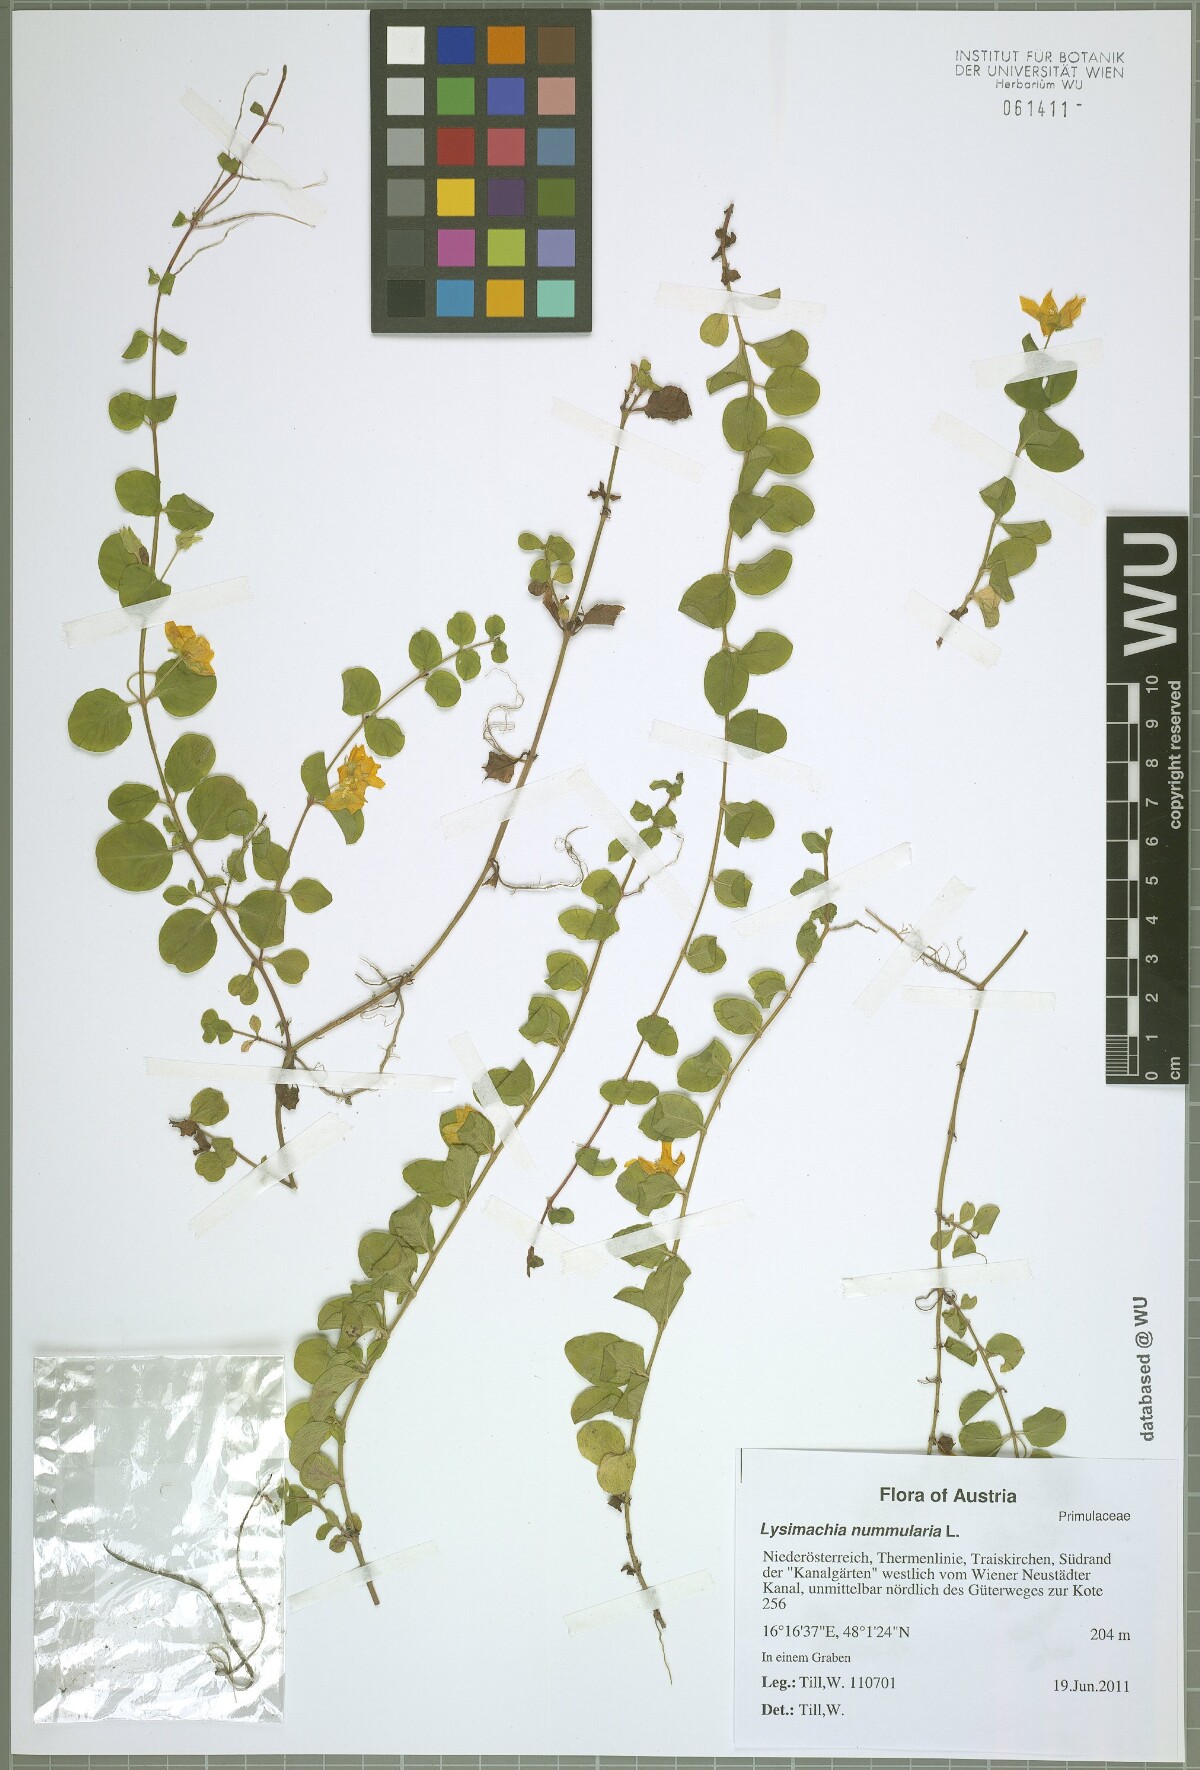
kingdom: Plantae
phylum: Tracheophyta
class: Magnoliopsida
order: Ericales
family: Primulaceae
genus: Lysimachia
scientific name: Lysimachia nummularia
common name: Moneywort
